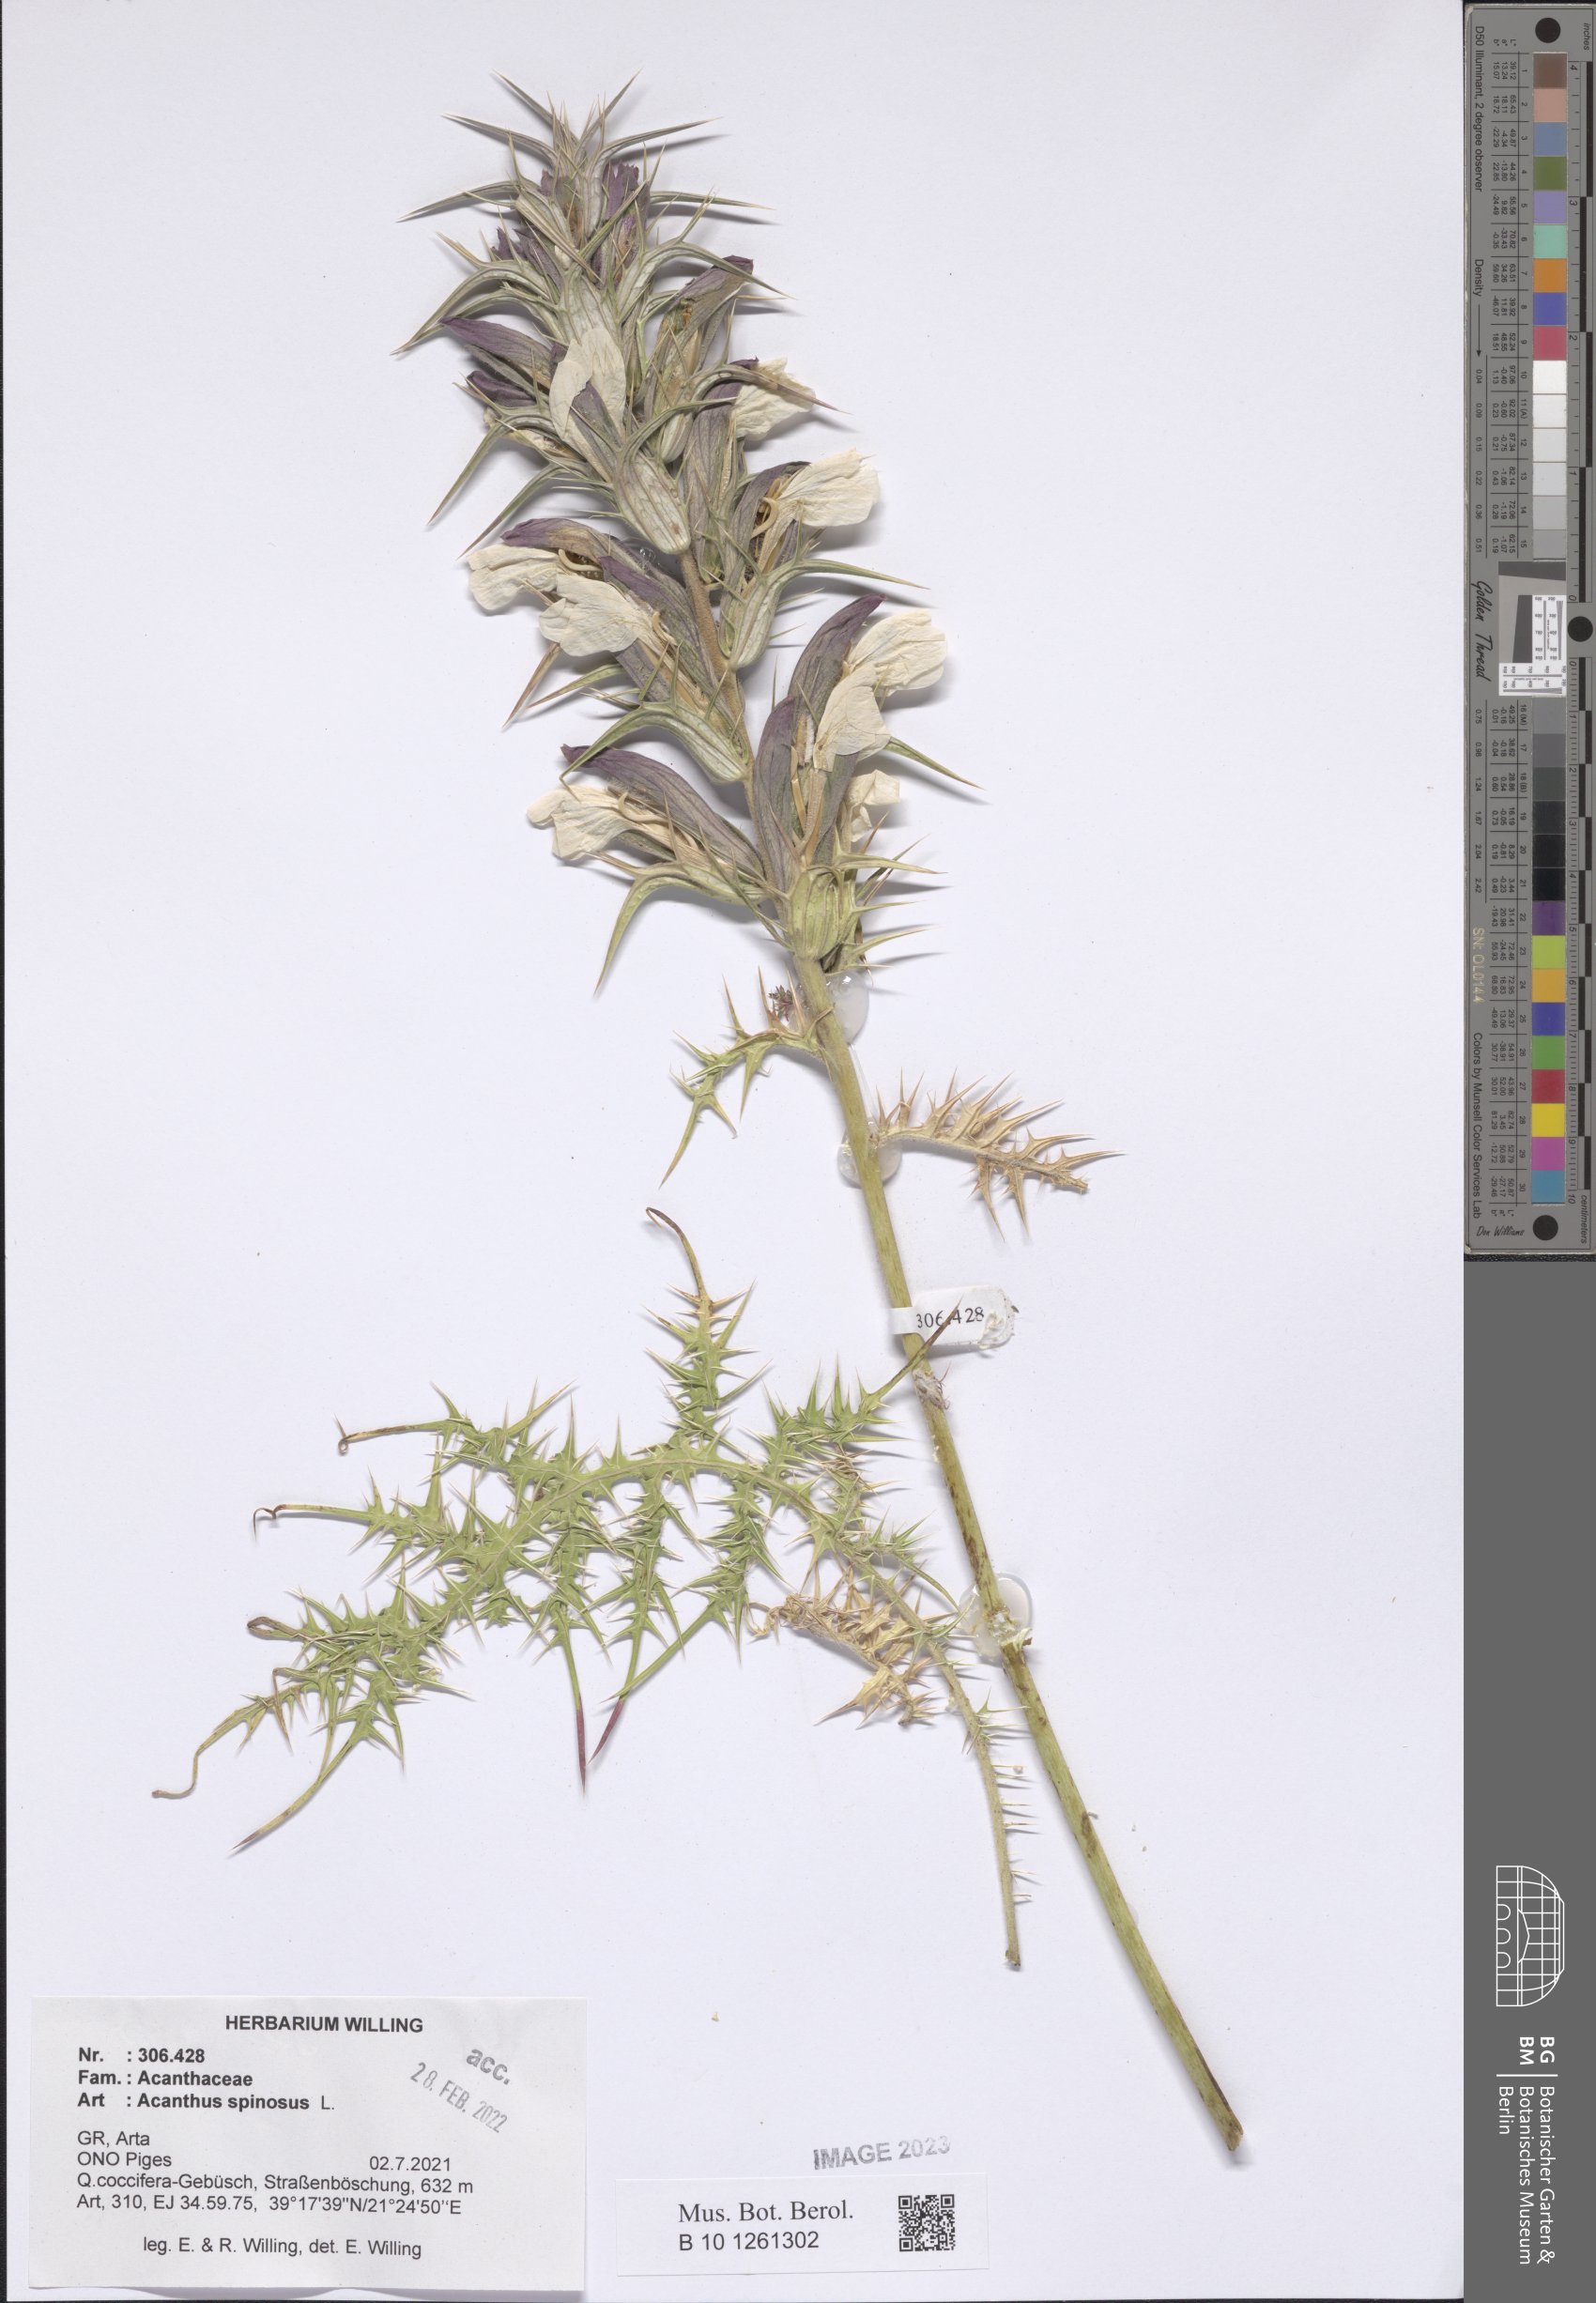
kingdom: Plantae
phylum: Tracheophyta
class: Magnoliopsida
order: Lamiales
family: Acanthaceae
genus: Acanthus
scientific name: Acanthus spinosus
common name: Spiny bear's-breech
